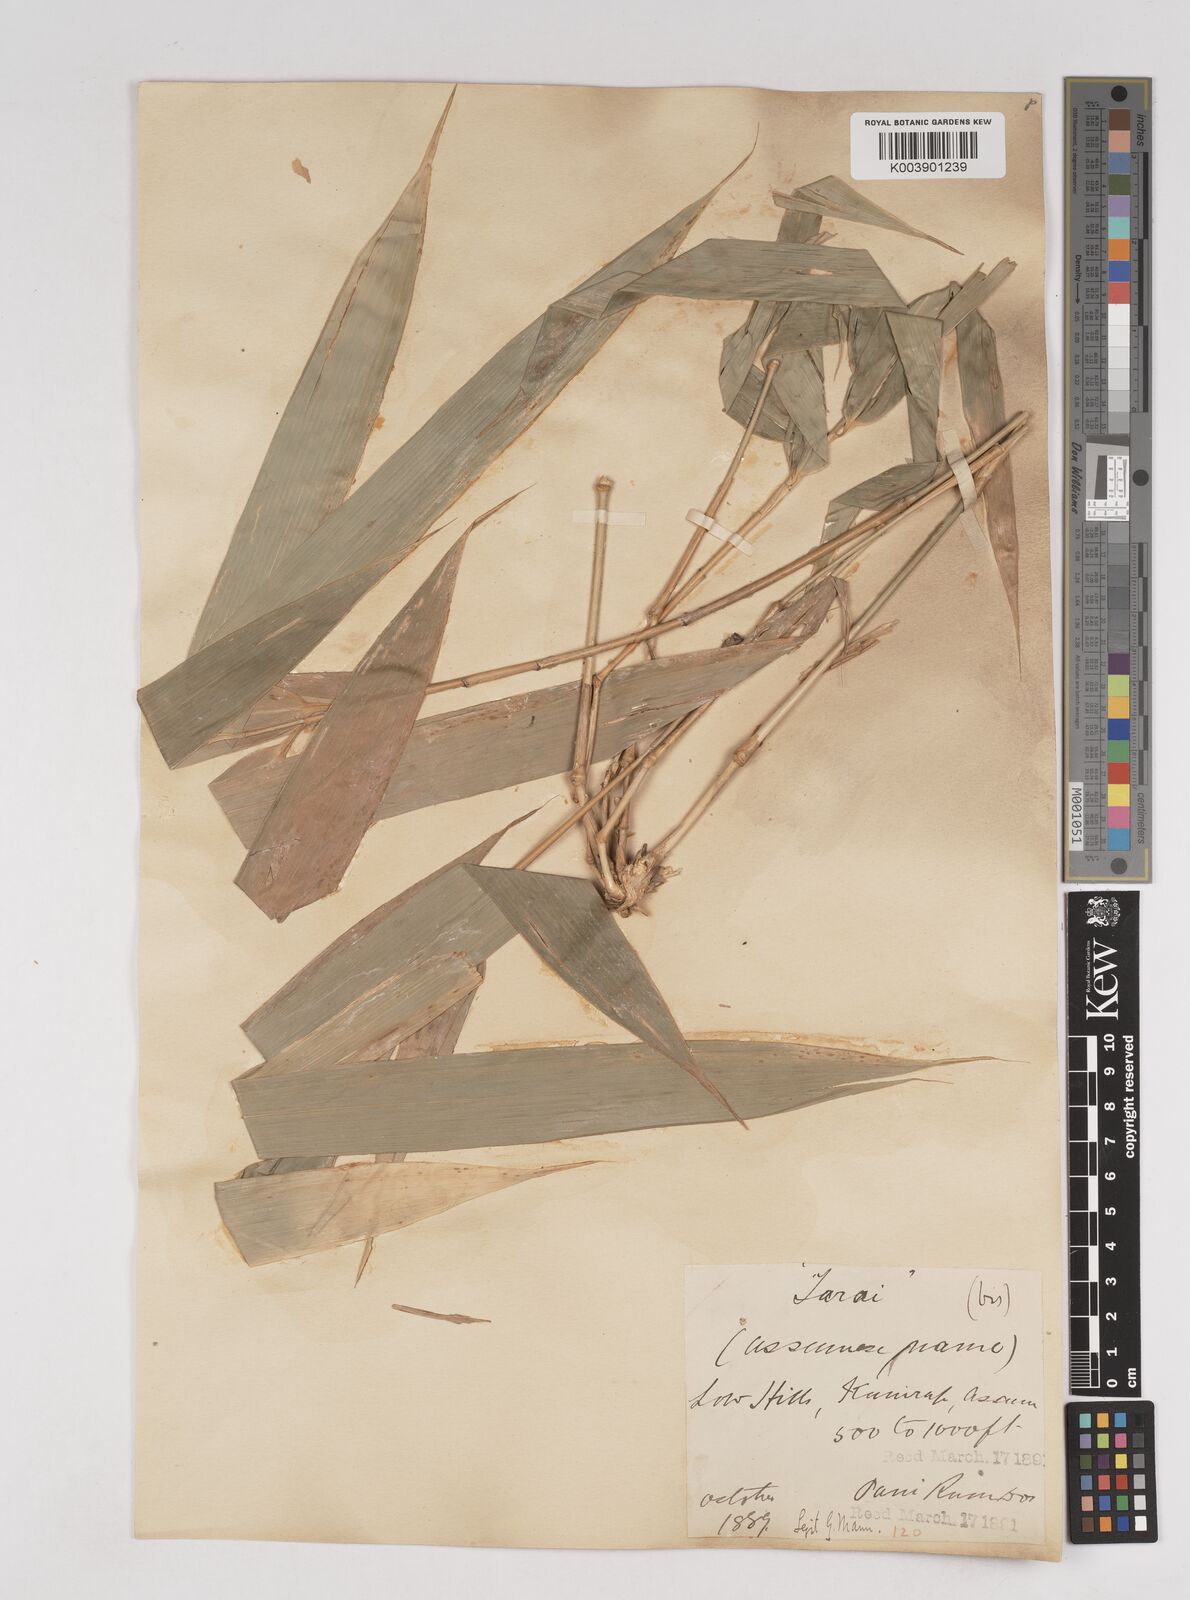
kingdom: Plantae
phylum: Tracheophyta
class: Liliopsida
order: Poales
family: Poaceae
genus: Melocanna
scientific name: Melocanna baccifera
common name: Berry bamboo
